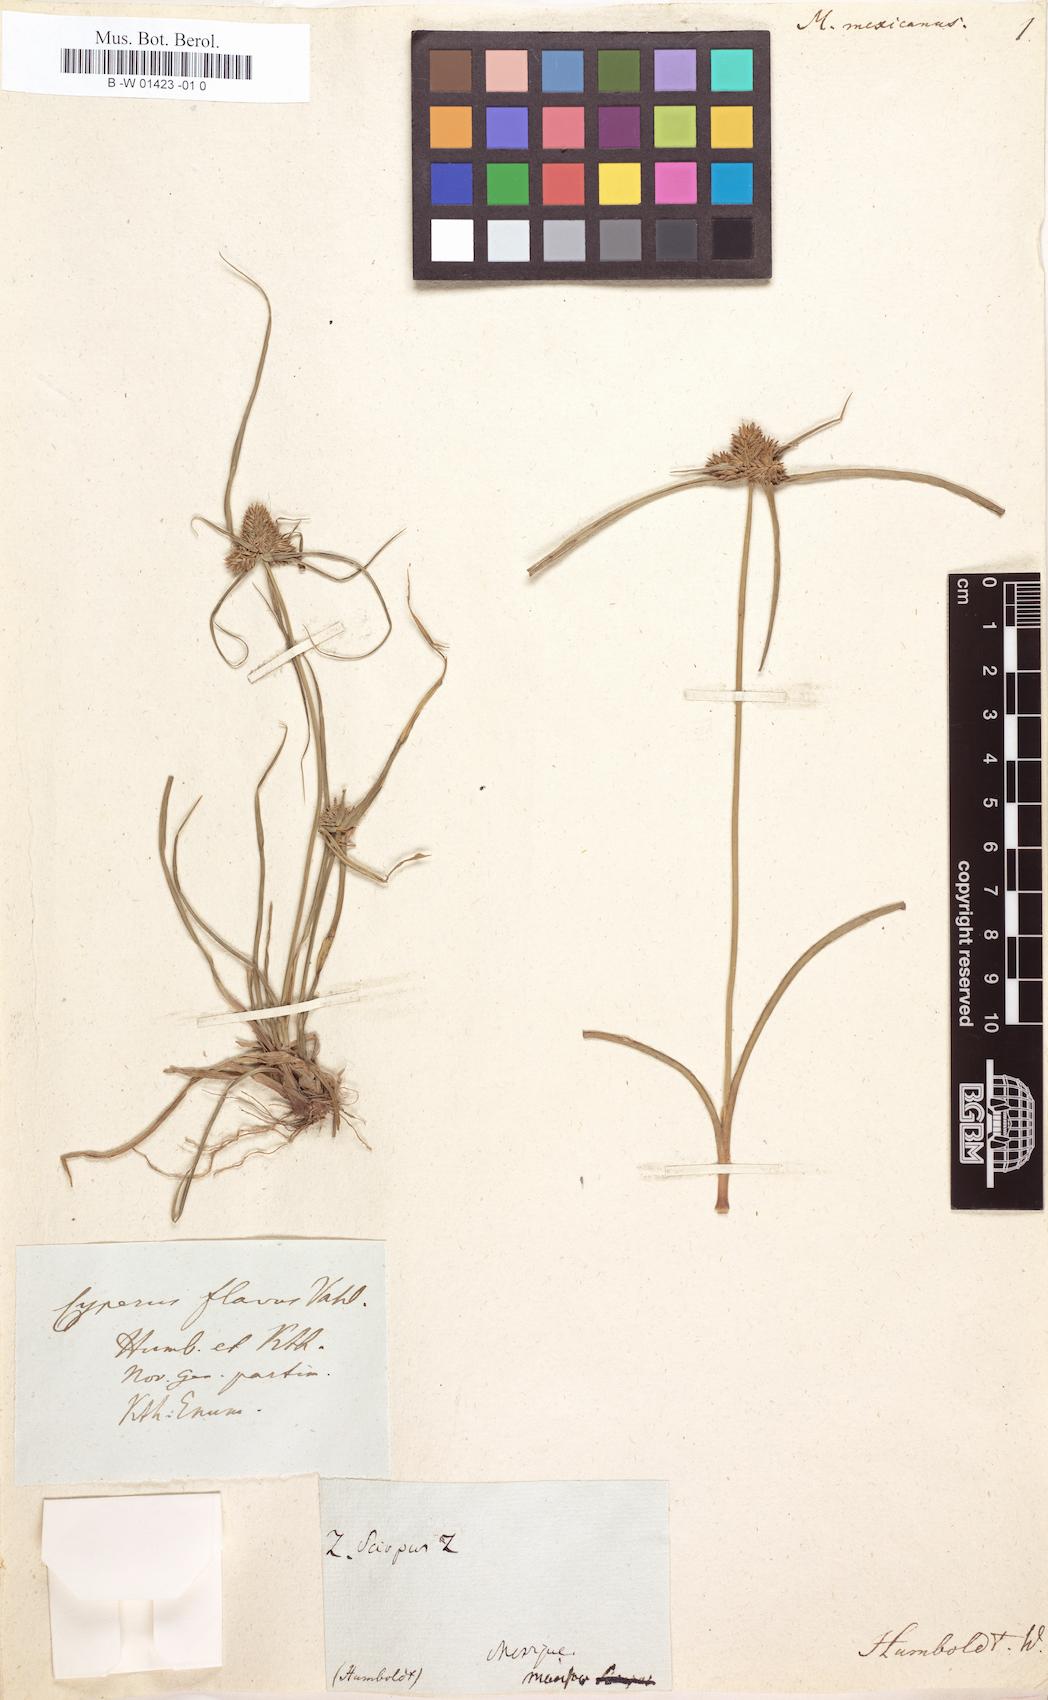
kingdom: Plantae
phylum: Tracheophyta
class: Liliopsida
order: Poales
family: Cyperaceae
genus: Cyperus
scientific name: Cyperus mutisii
